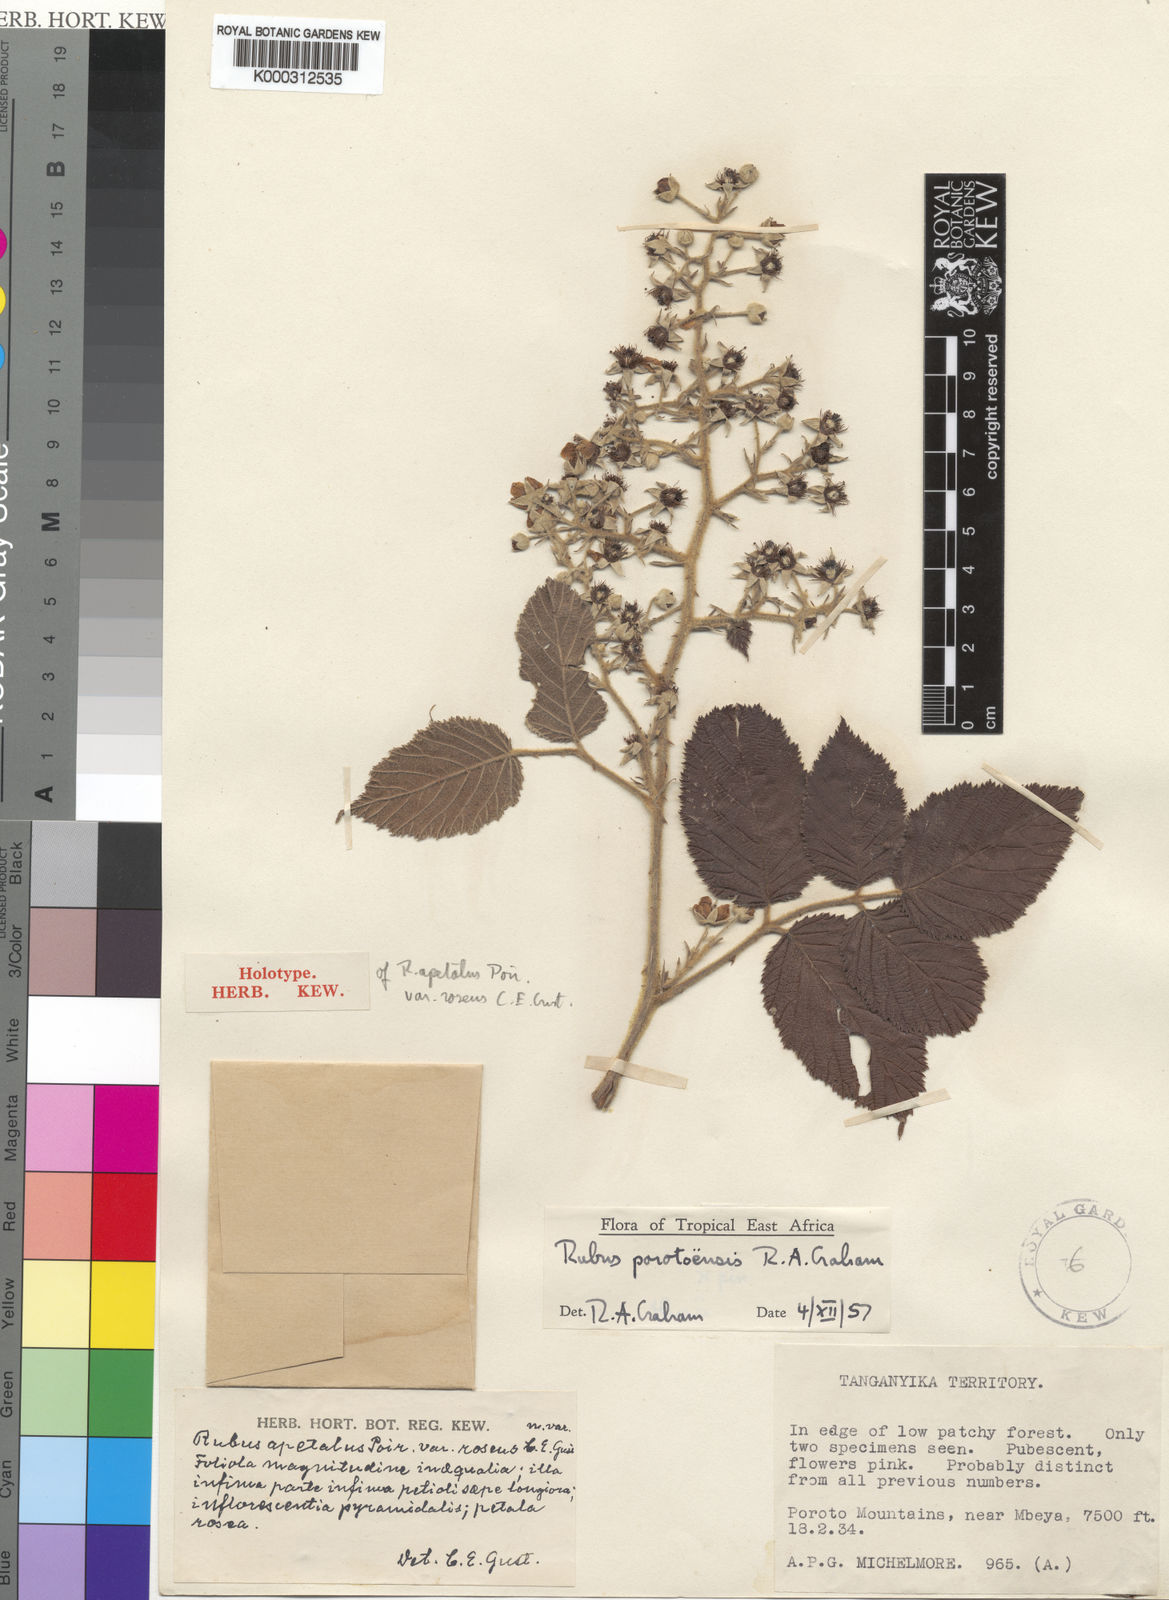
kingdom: Plantae
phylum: Tracheophyta
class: Magnoliopsida
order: Rosales
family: Rosaceae
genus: Rubus
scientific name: Rubus porotoensis
